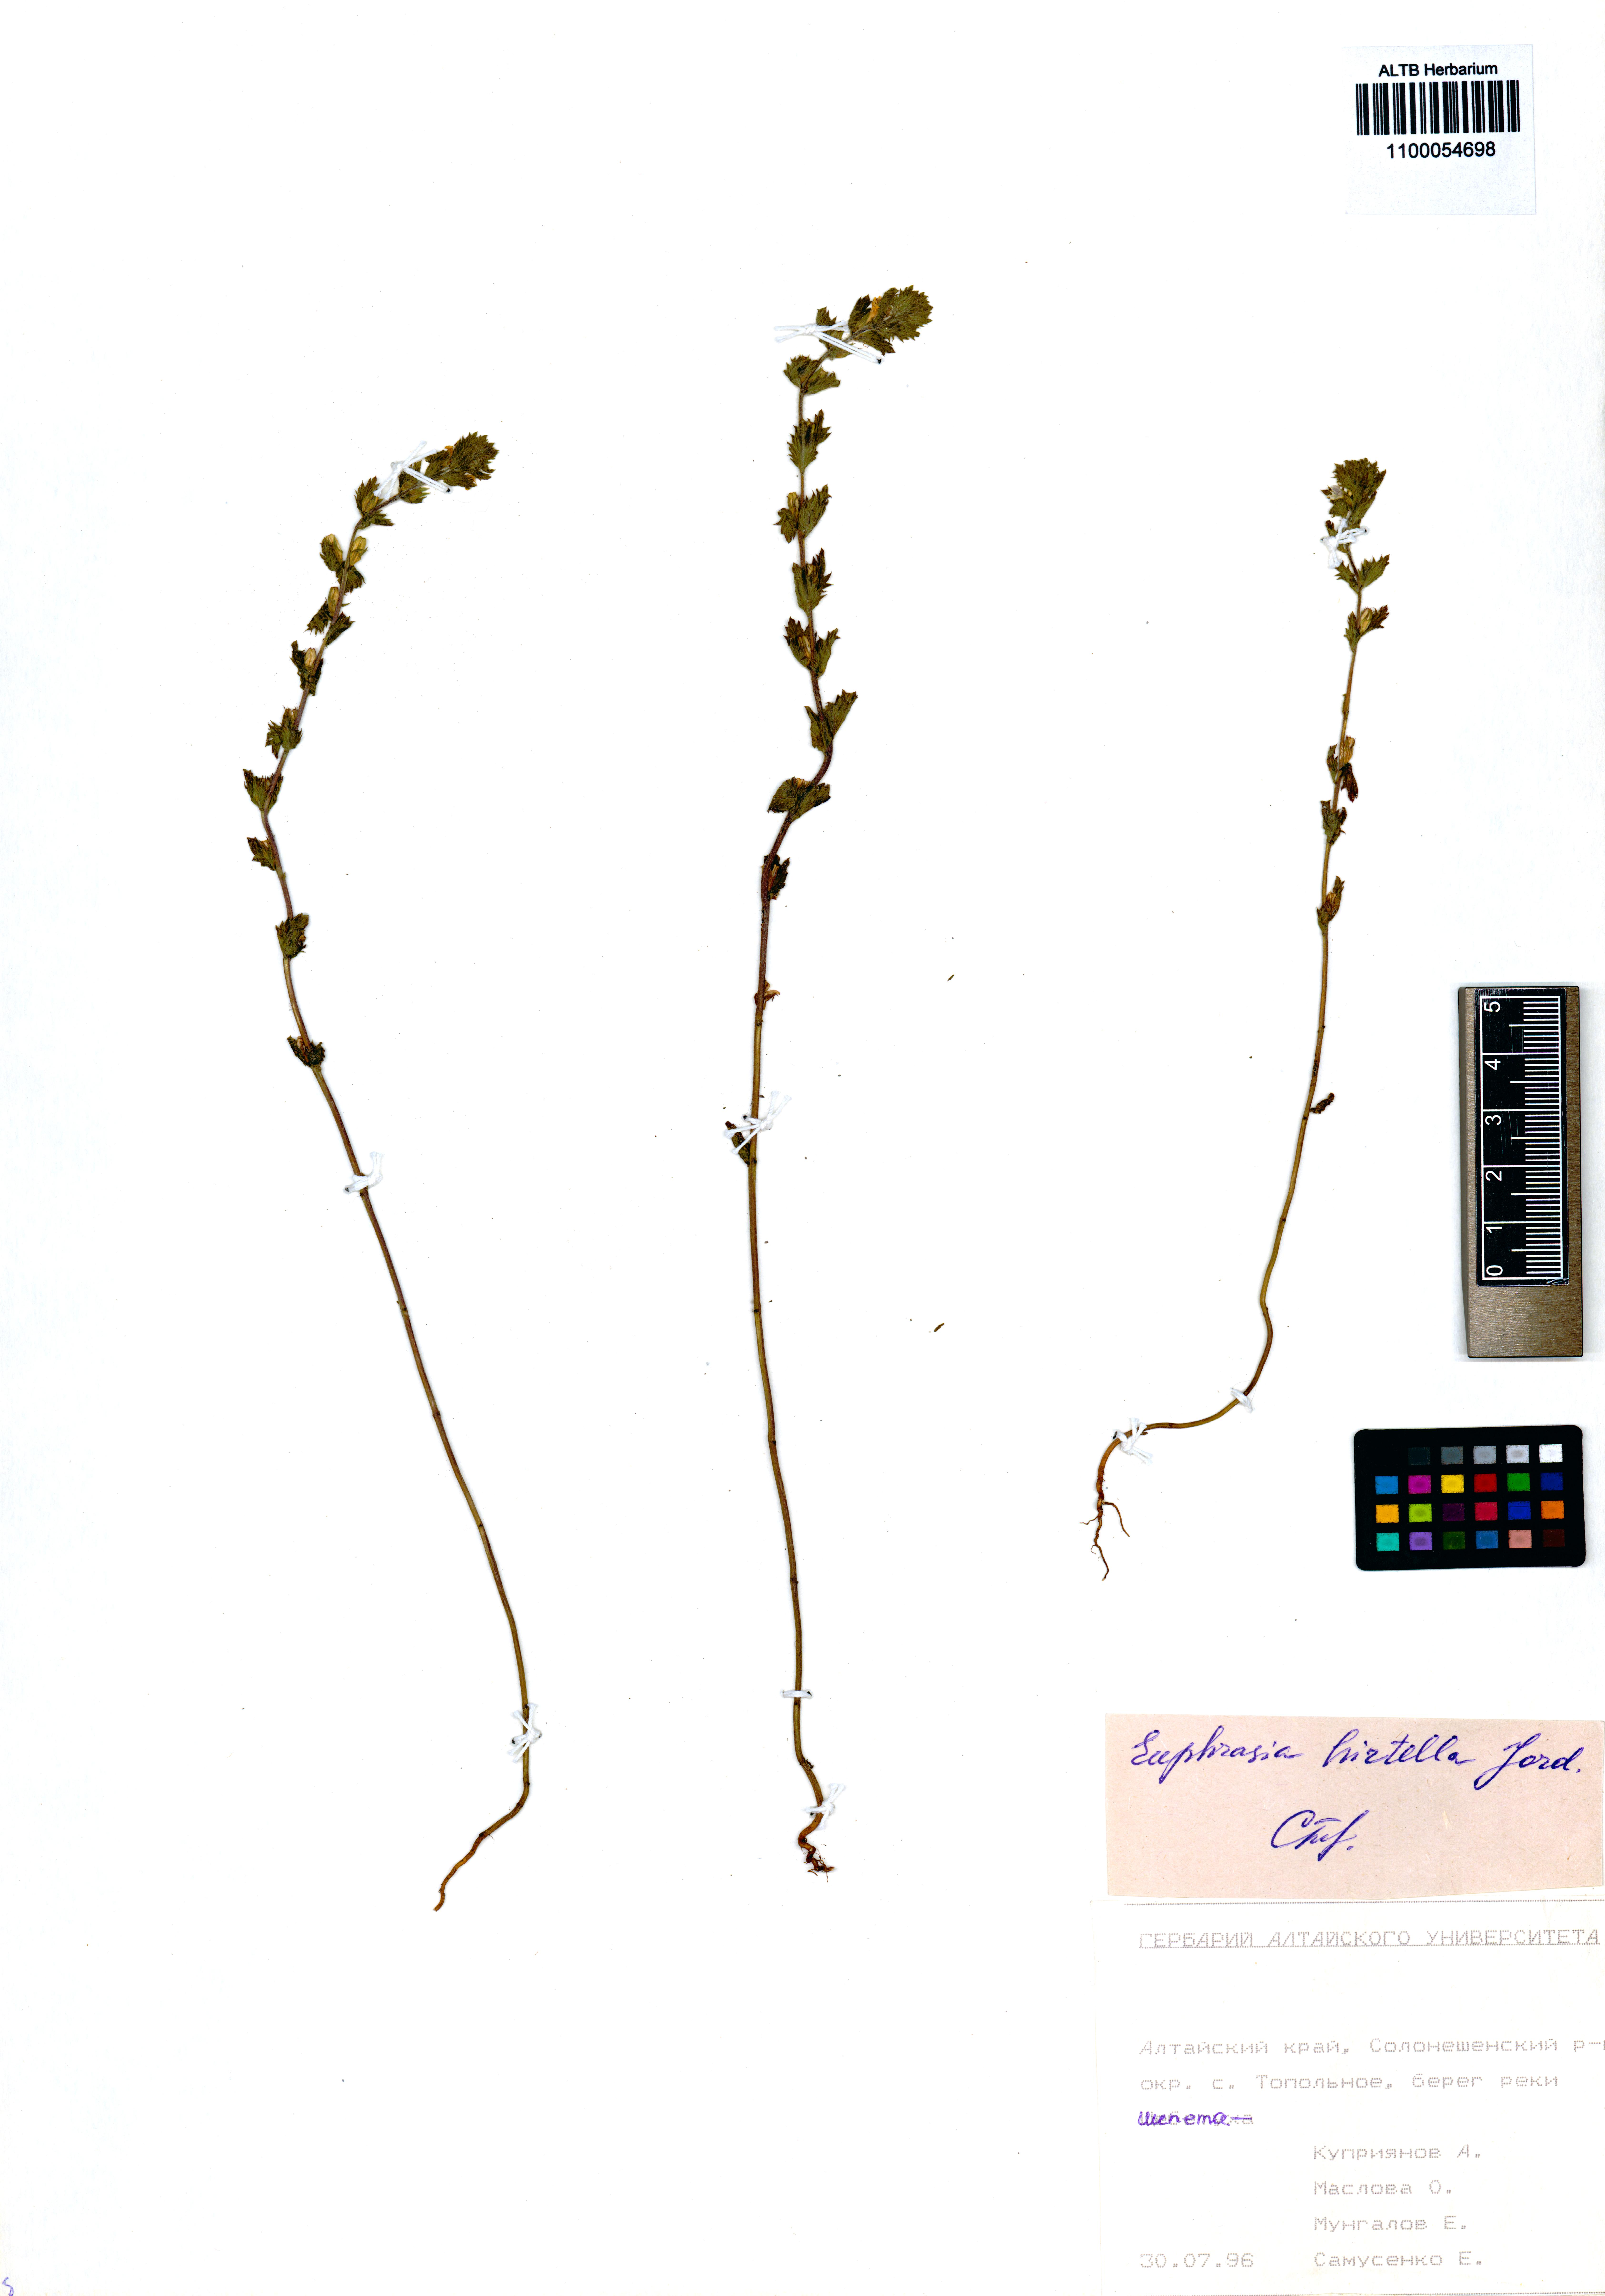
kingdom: Plantae
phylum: Tracheophyta
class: Magnoliopsida
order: Lamiales
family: Orobanchaceae
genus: Euphrasia
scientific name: Euphrasia hirtella
